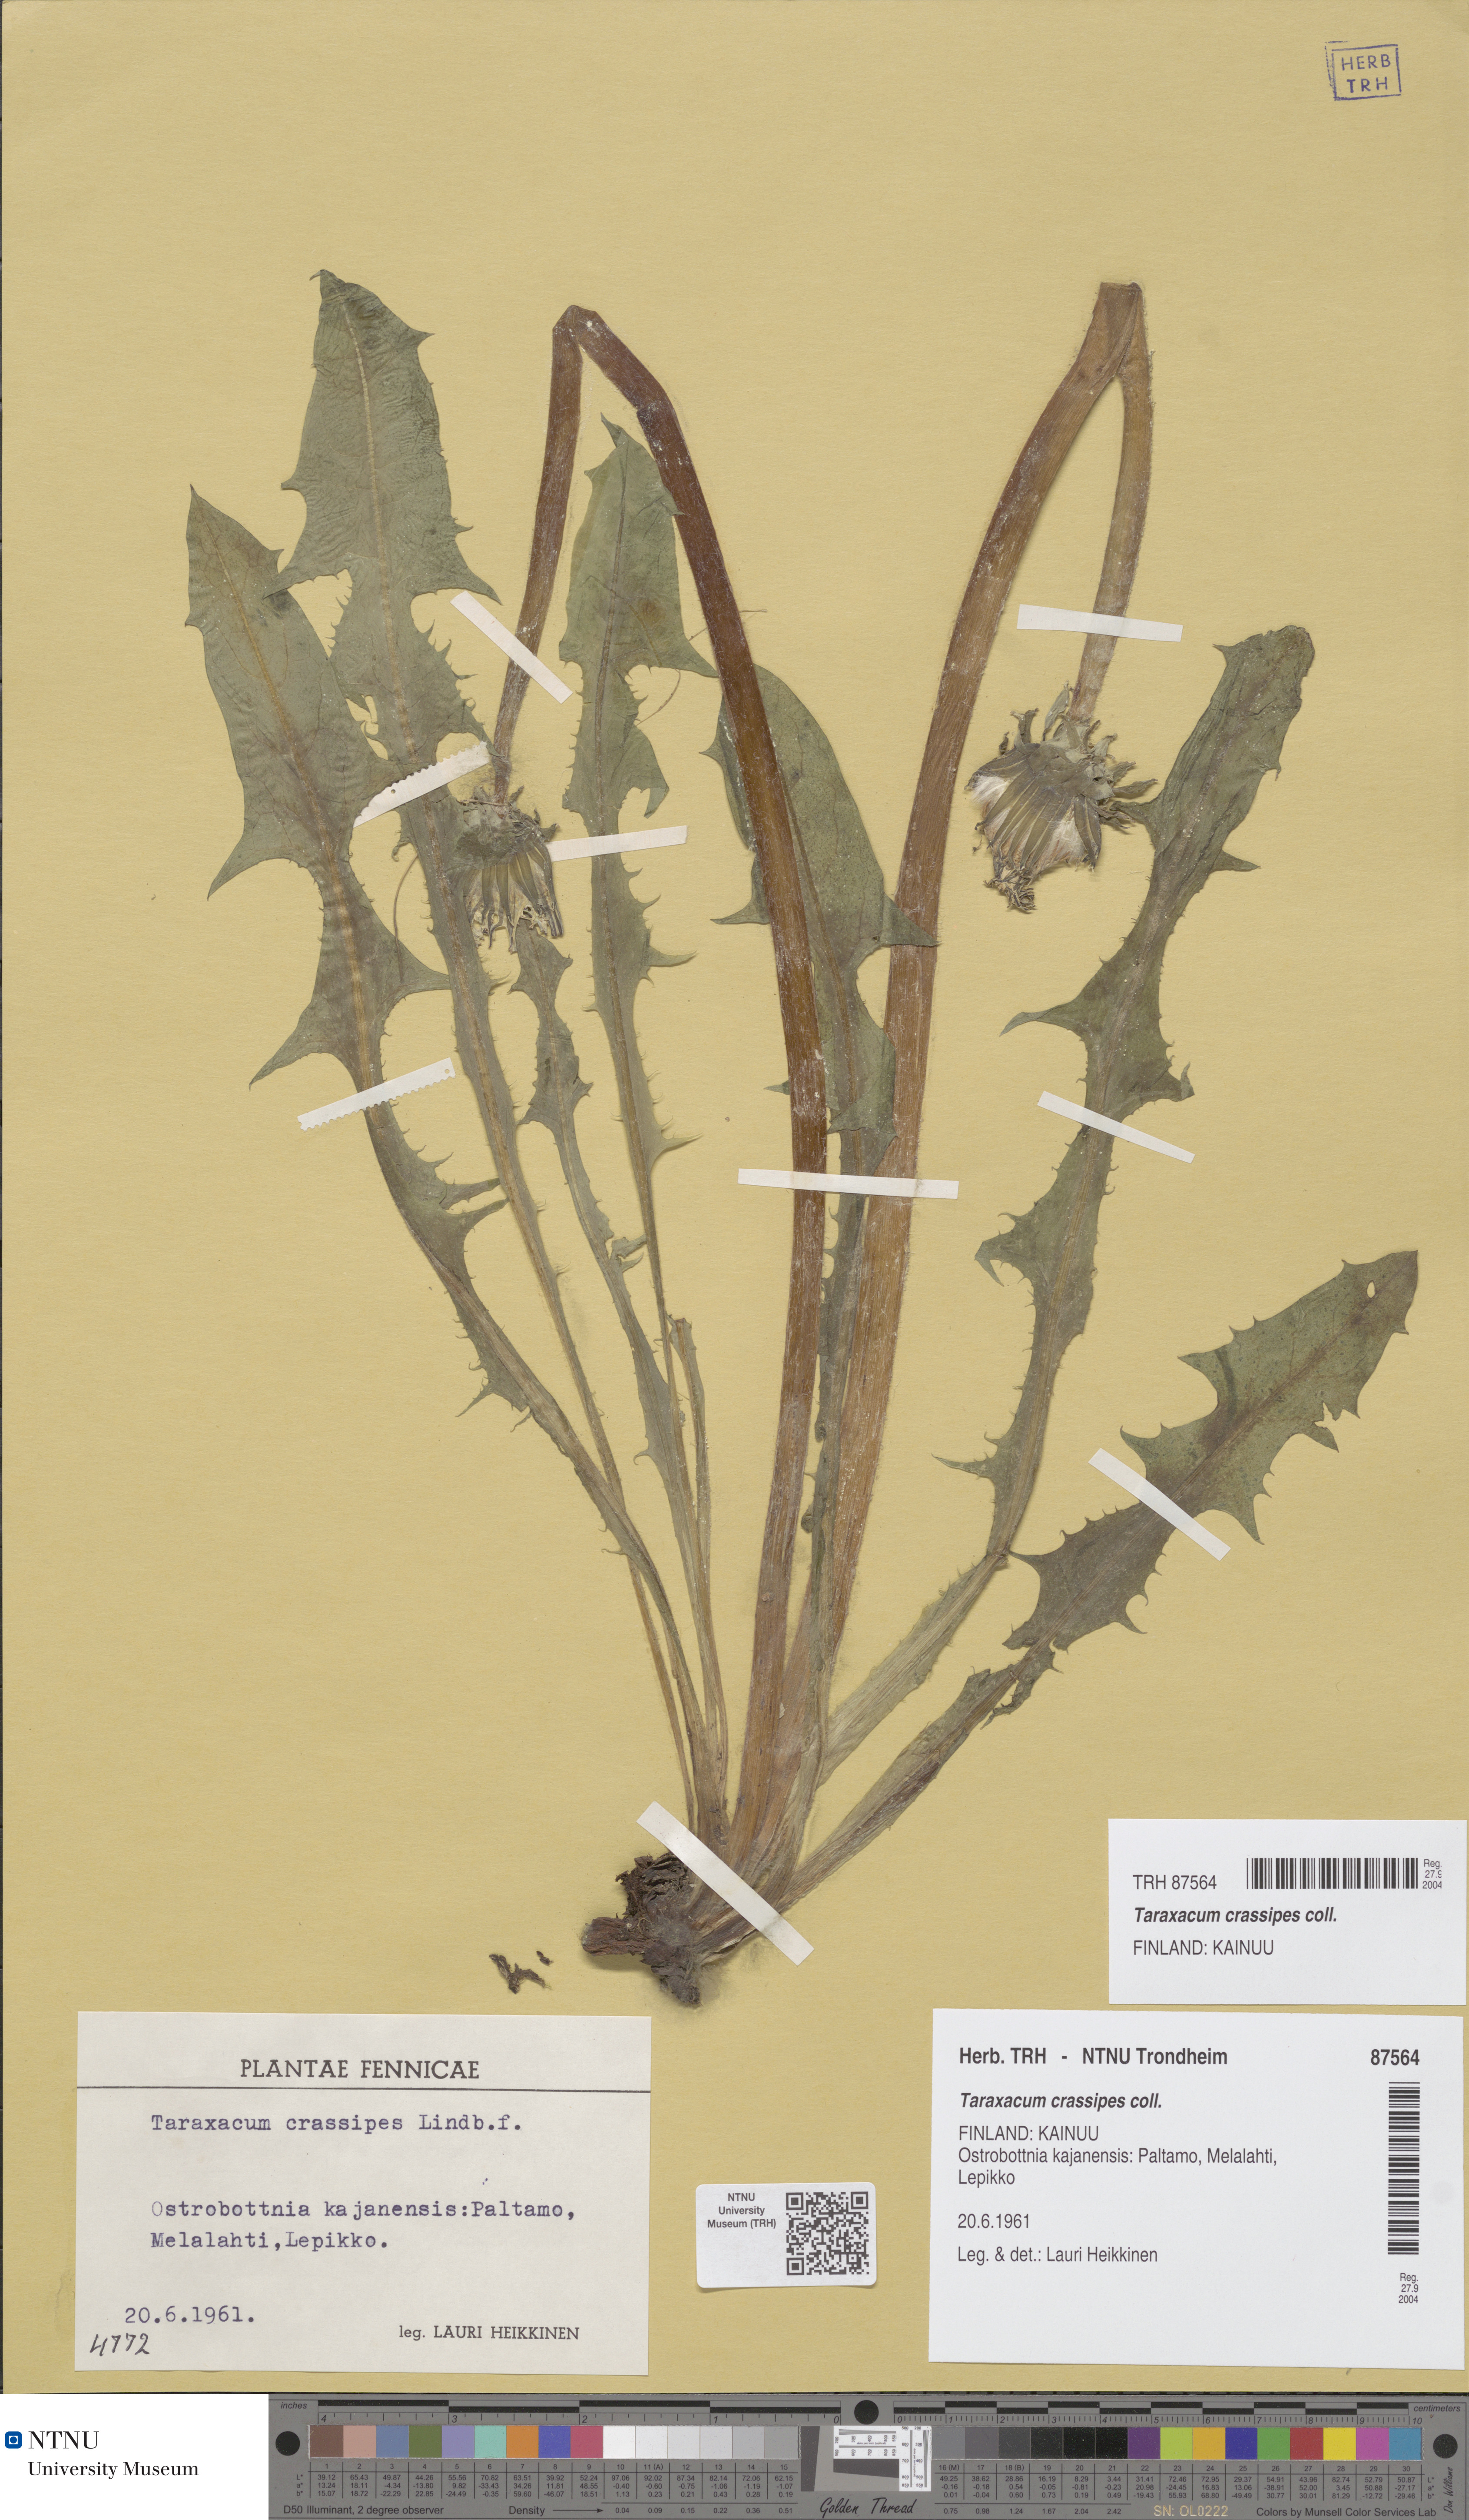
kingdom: Plantae
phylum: Tracheophyta
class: Magnoliopsida
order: Asterales
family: Asteraceae
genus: Taraxacum
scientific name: Taraxacum crassipes
